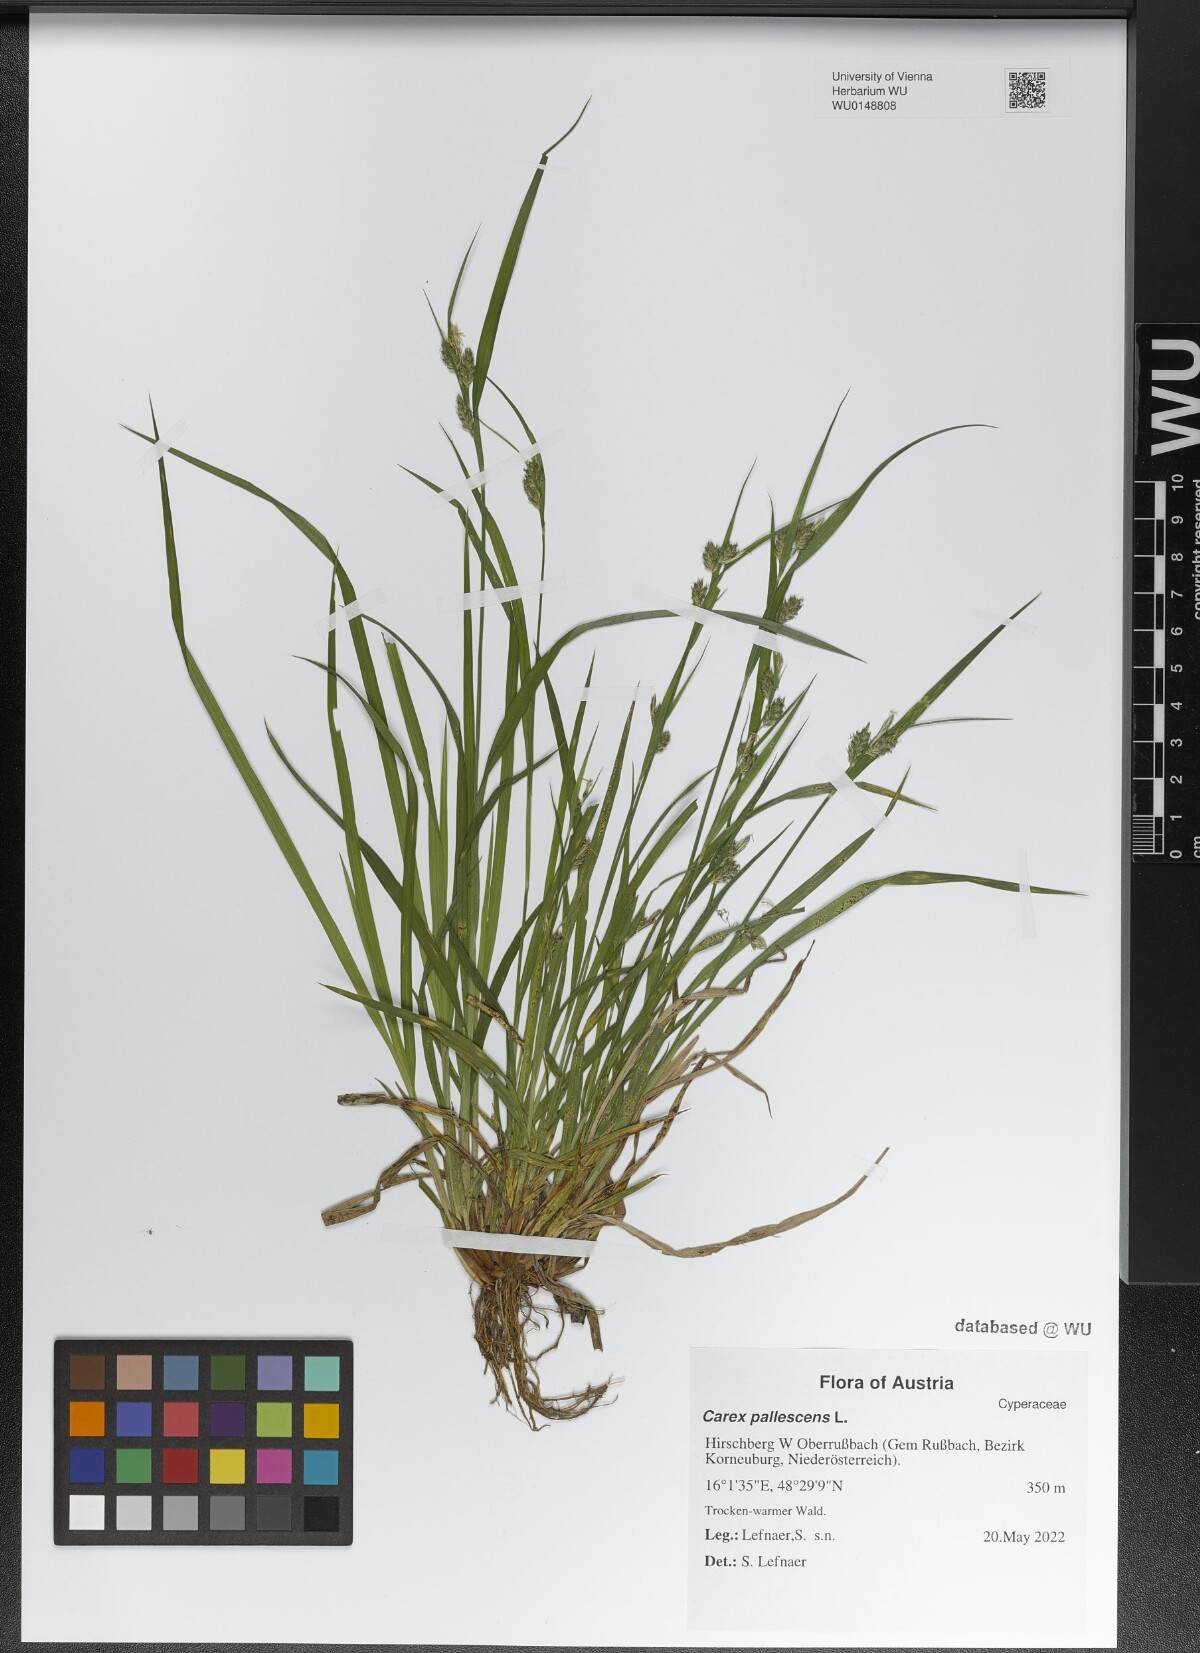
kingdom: Plantae
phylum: Tracheophyta
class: Liliopsida
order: Poales
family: Cyperaceae
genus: Carex
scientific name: Carex pallescens
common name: Pale sedge
